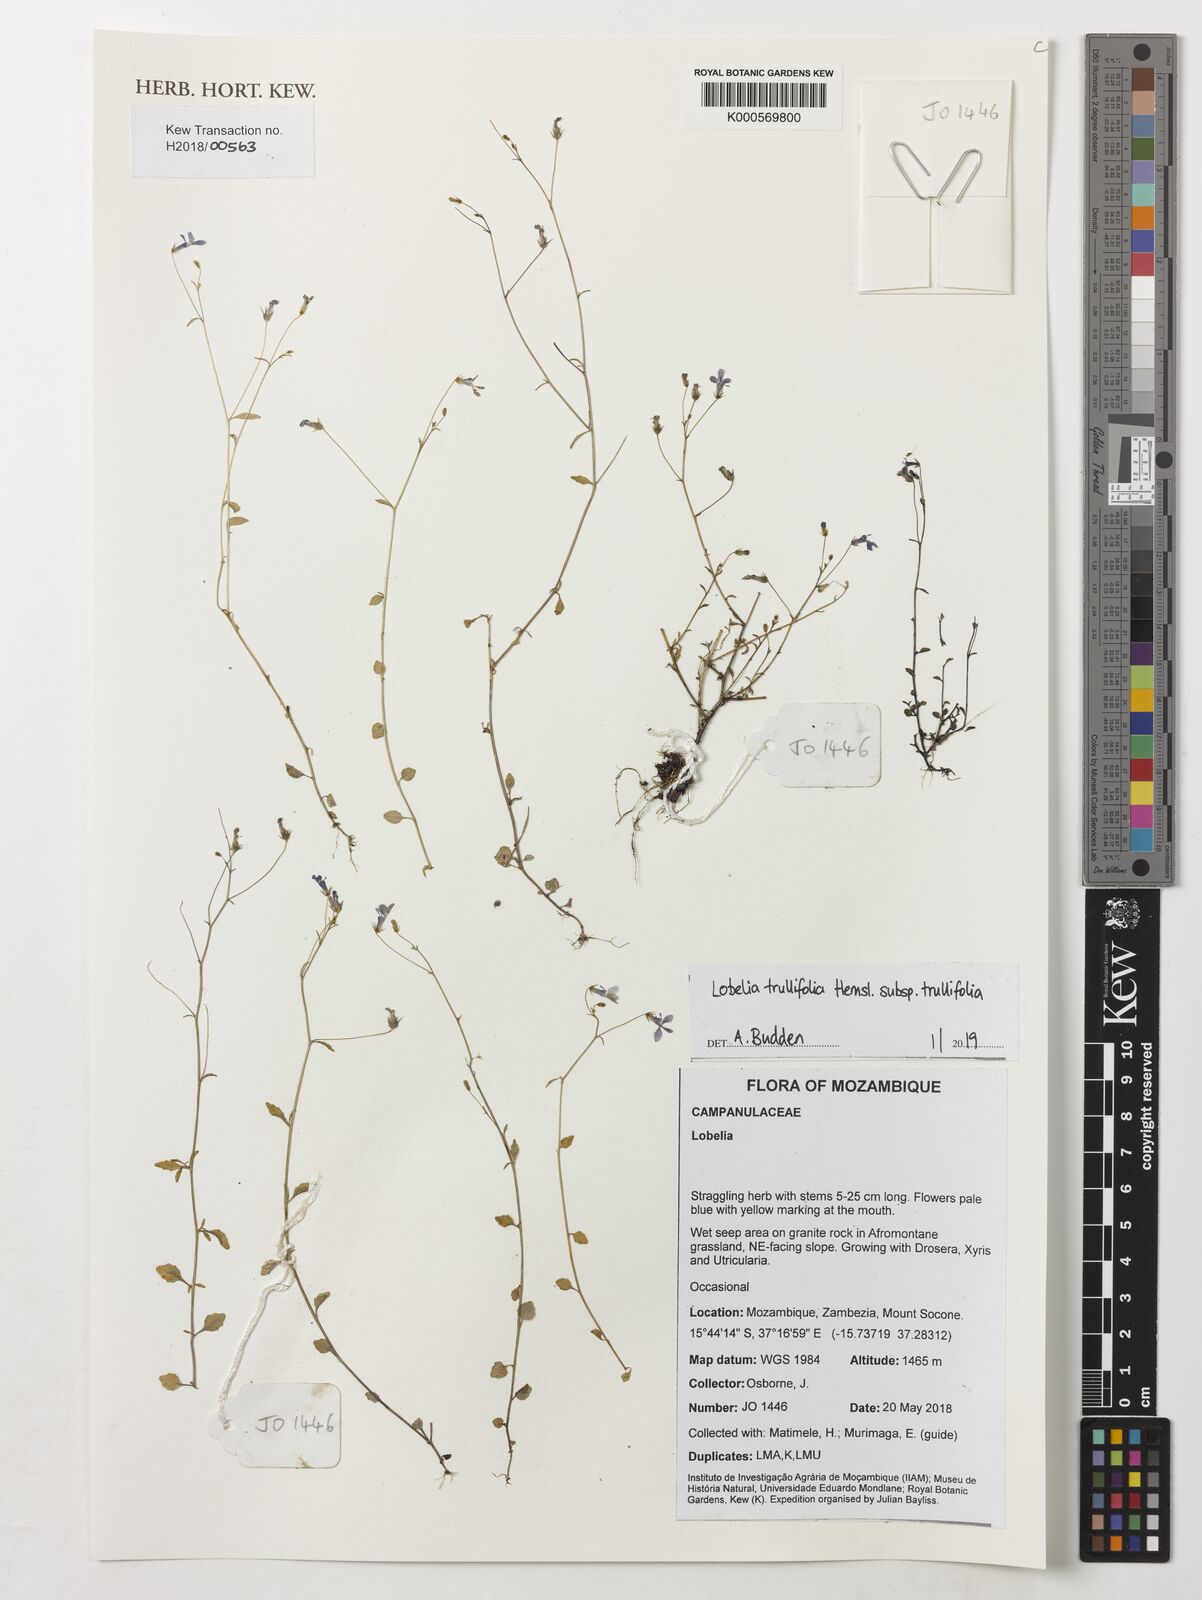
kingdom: Plantae
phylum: Tracheophyta
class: Magnoliopsida
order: Asterales
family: Campanulaceae
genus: Lobelia
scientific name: Lobelia trullifolia
